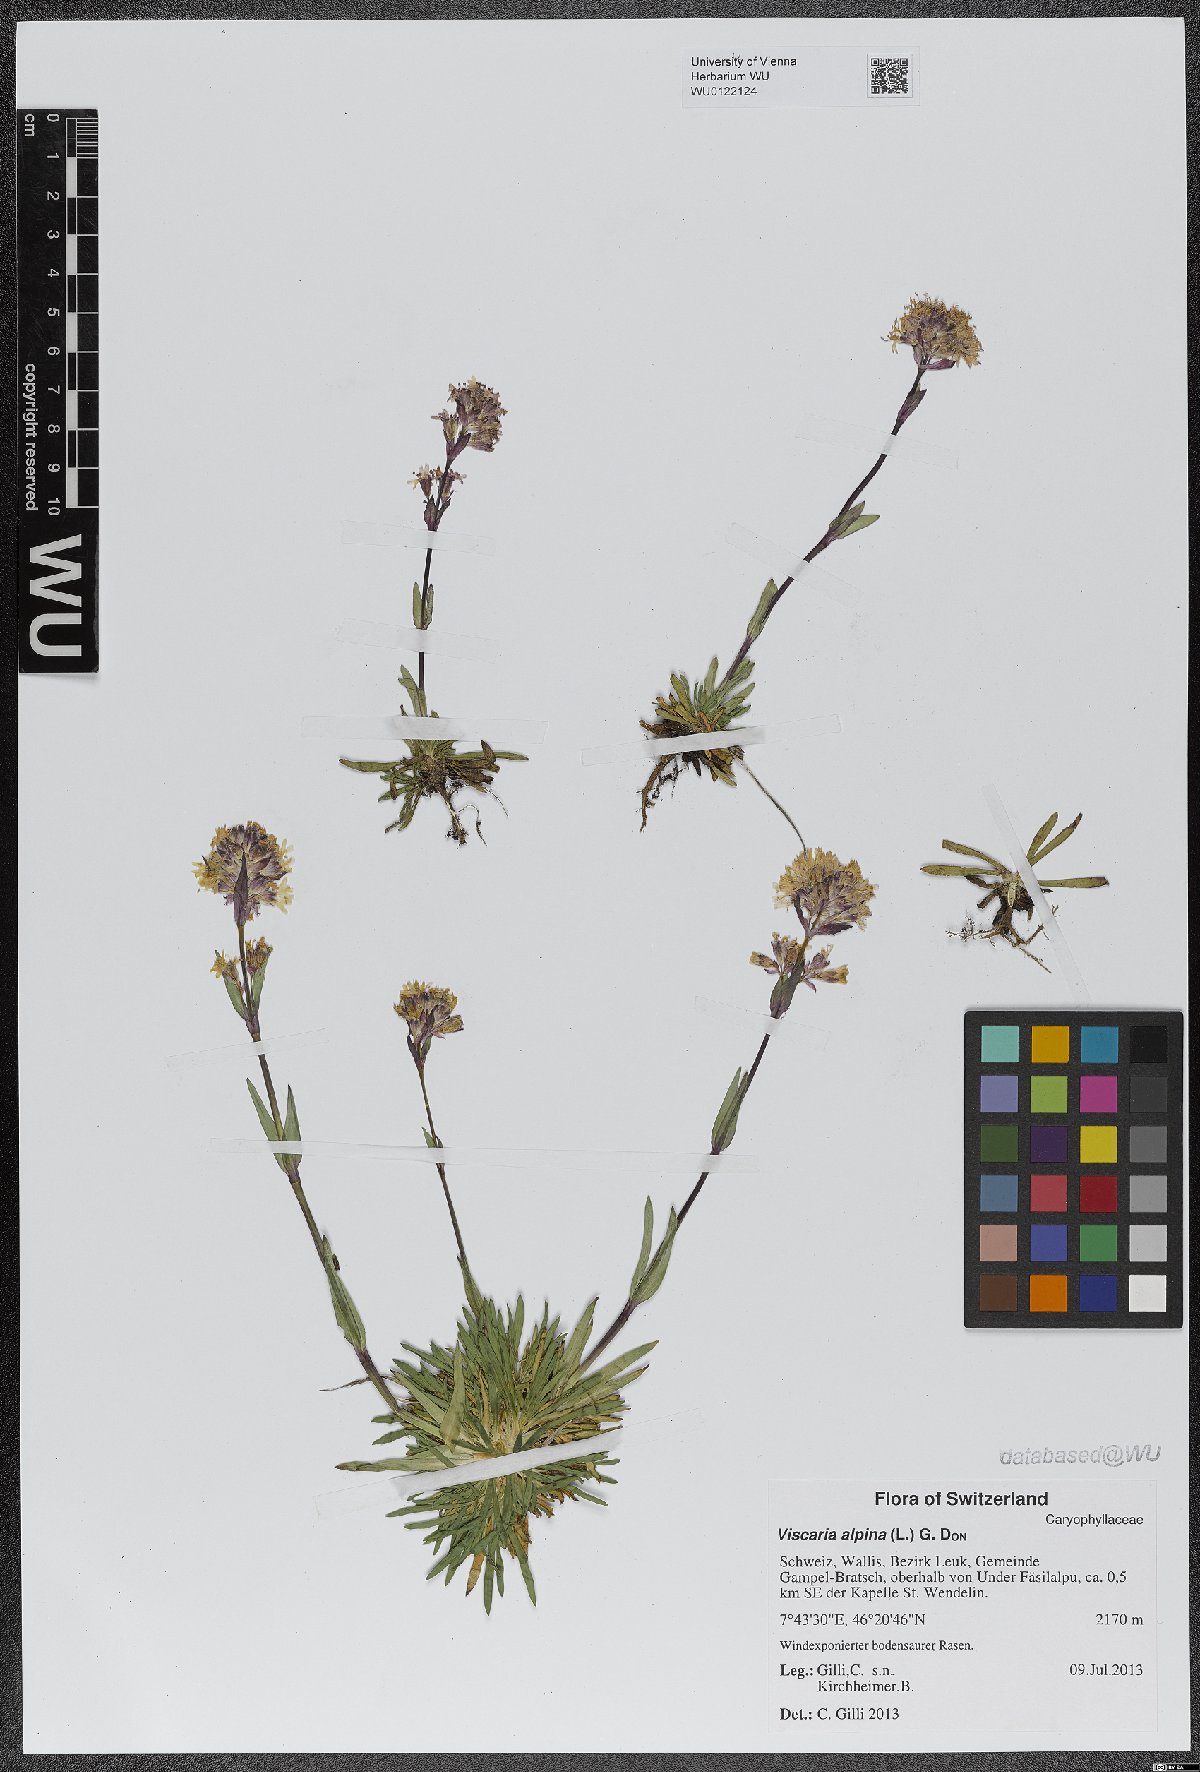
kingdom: Plantae
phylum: Tracheophyta
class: Magnoliopsida
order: Caryophyllales
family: Caryophyllaceae
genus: Viscaria
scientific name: Viscaria alpina
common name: Alpine campion
